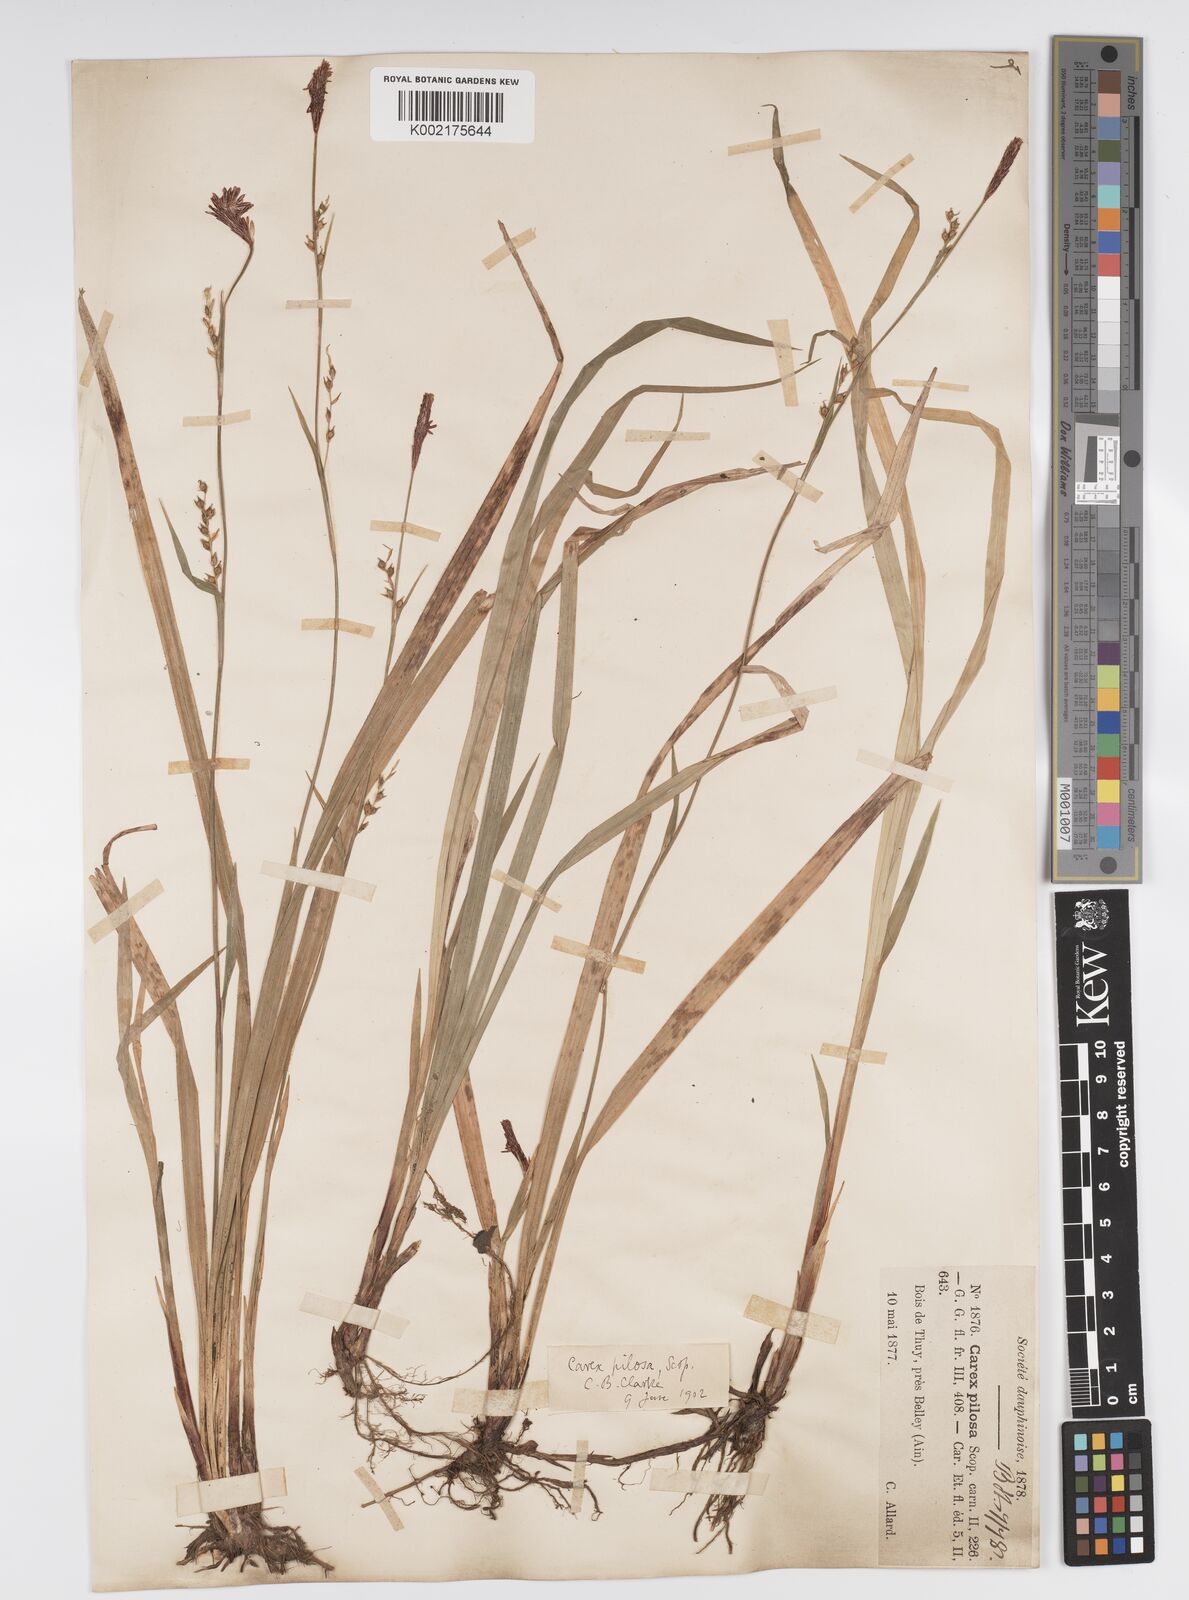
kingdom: Plantae
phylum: Tracheophyta
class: Liliopsida
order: Poales
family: Cyperaceae
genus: Carex
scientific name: Carex pilosa
